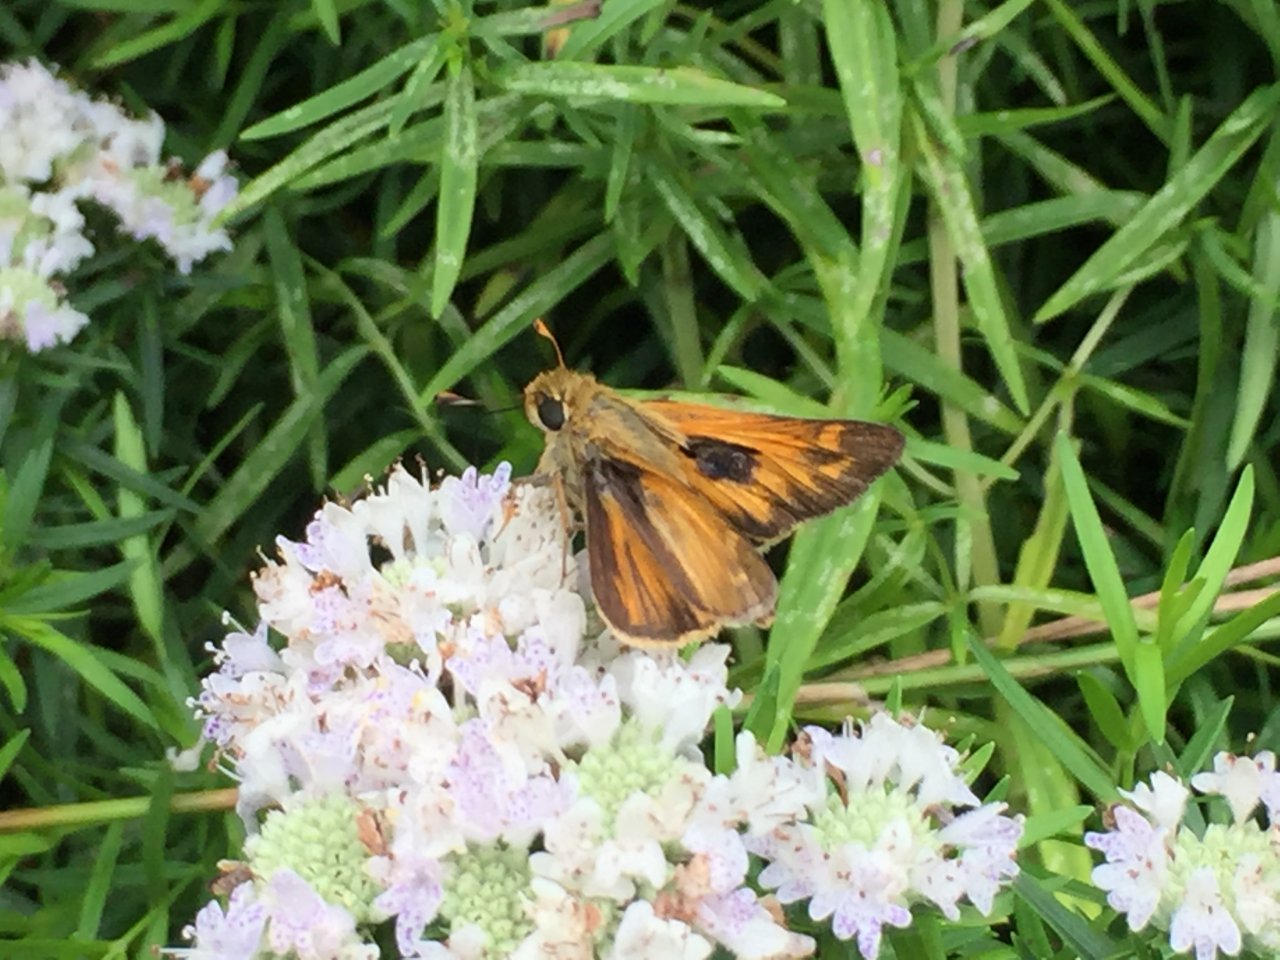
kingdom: Animalia
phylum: Arthropoda
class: Insecta
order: Lepidoptera
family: Hesperiidae
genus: Atalopedes
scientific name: Atalopedes campestris
